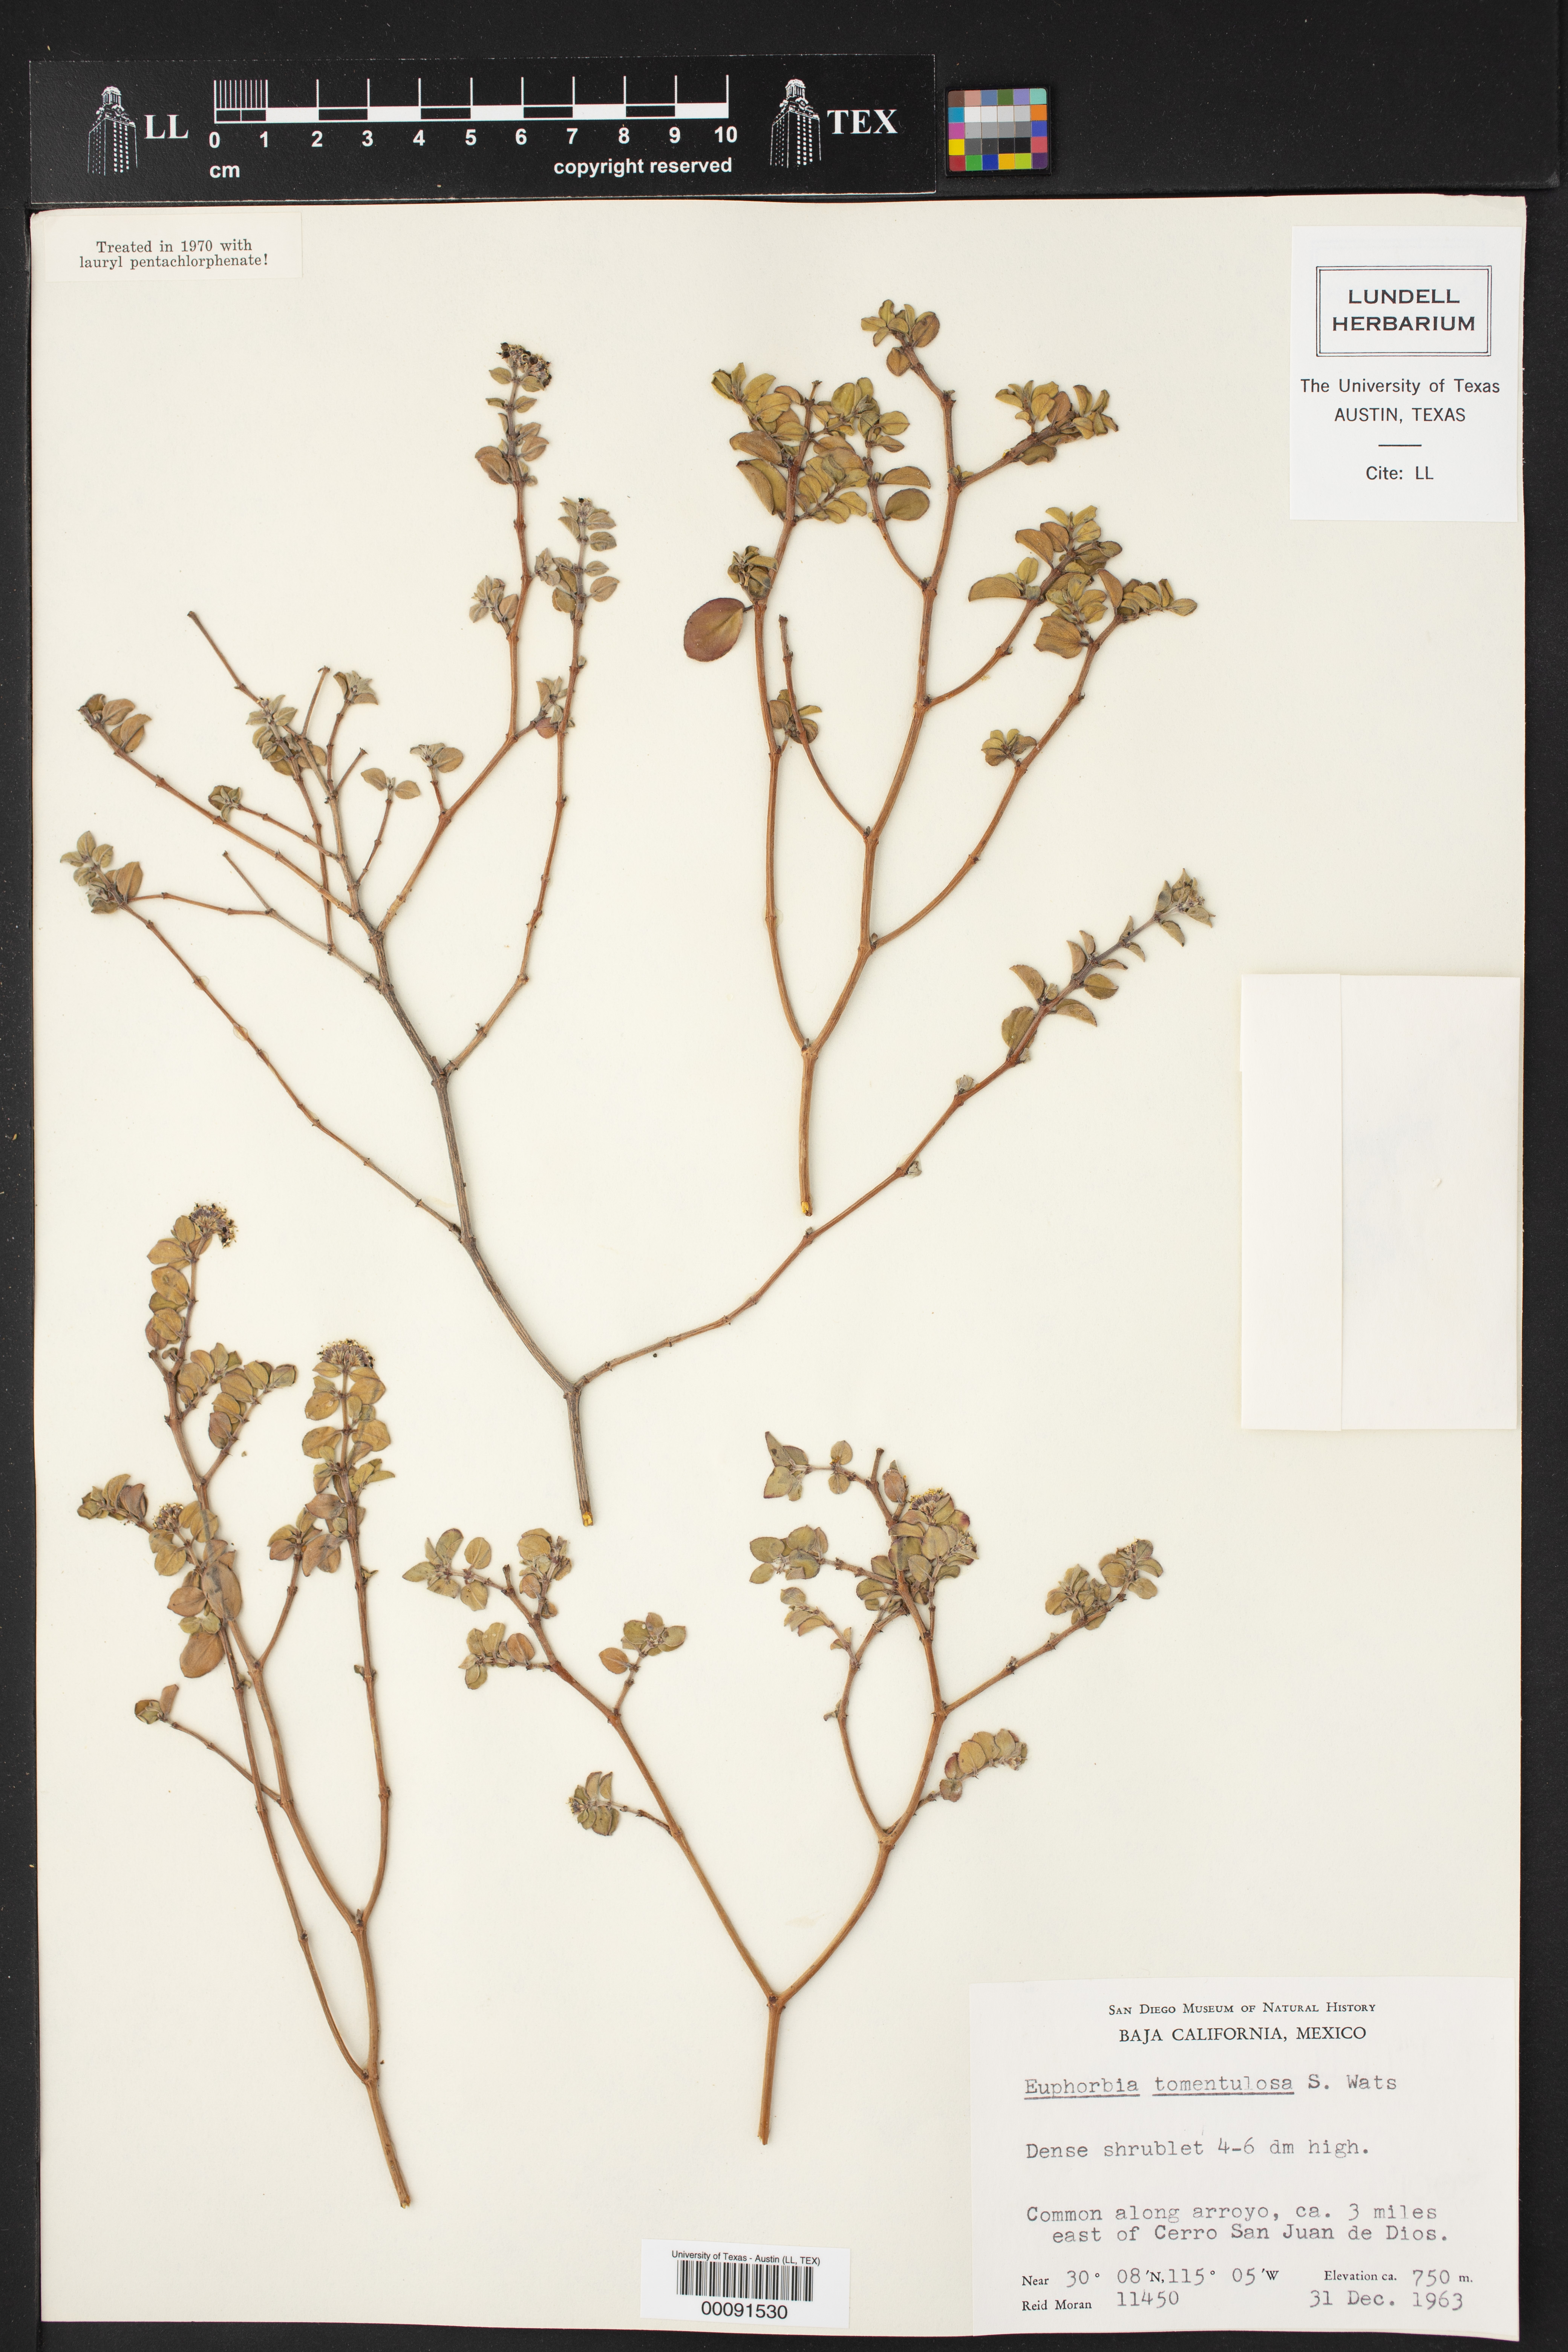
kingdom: Plantae
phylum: Tracheophyta
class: Magnoliopsida
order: Malpighiales
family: Euphorbiaceae
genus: Euphorbia
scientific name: Euphorbia tomentulosa
